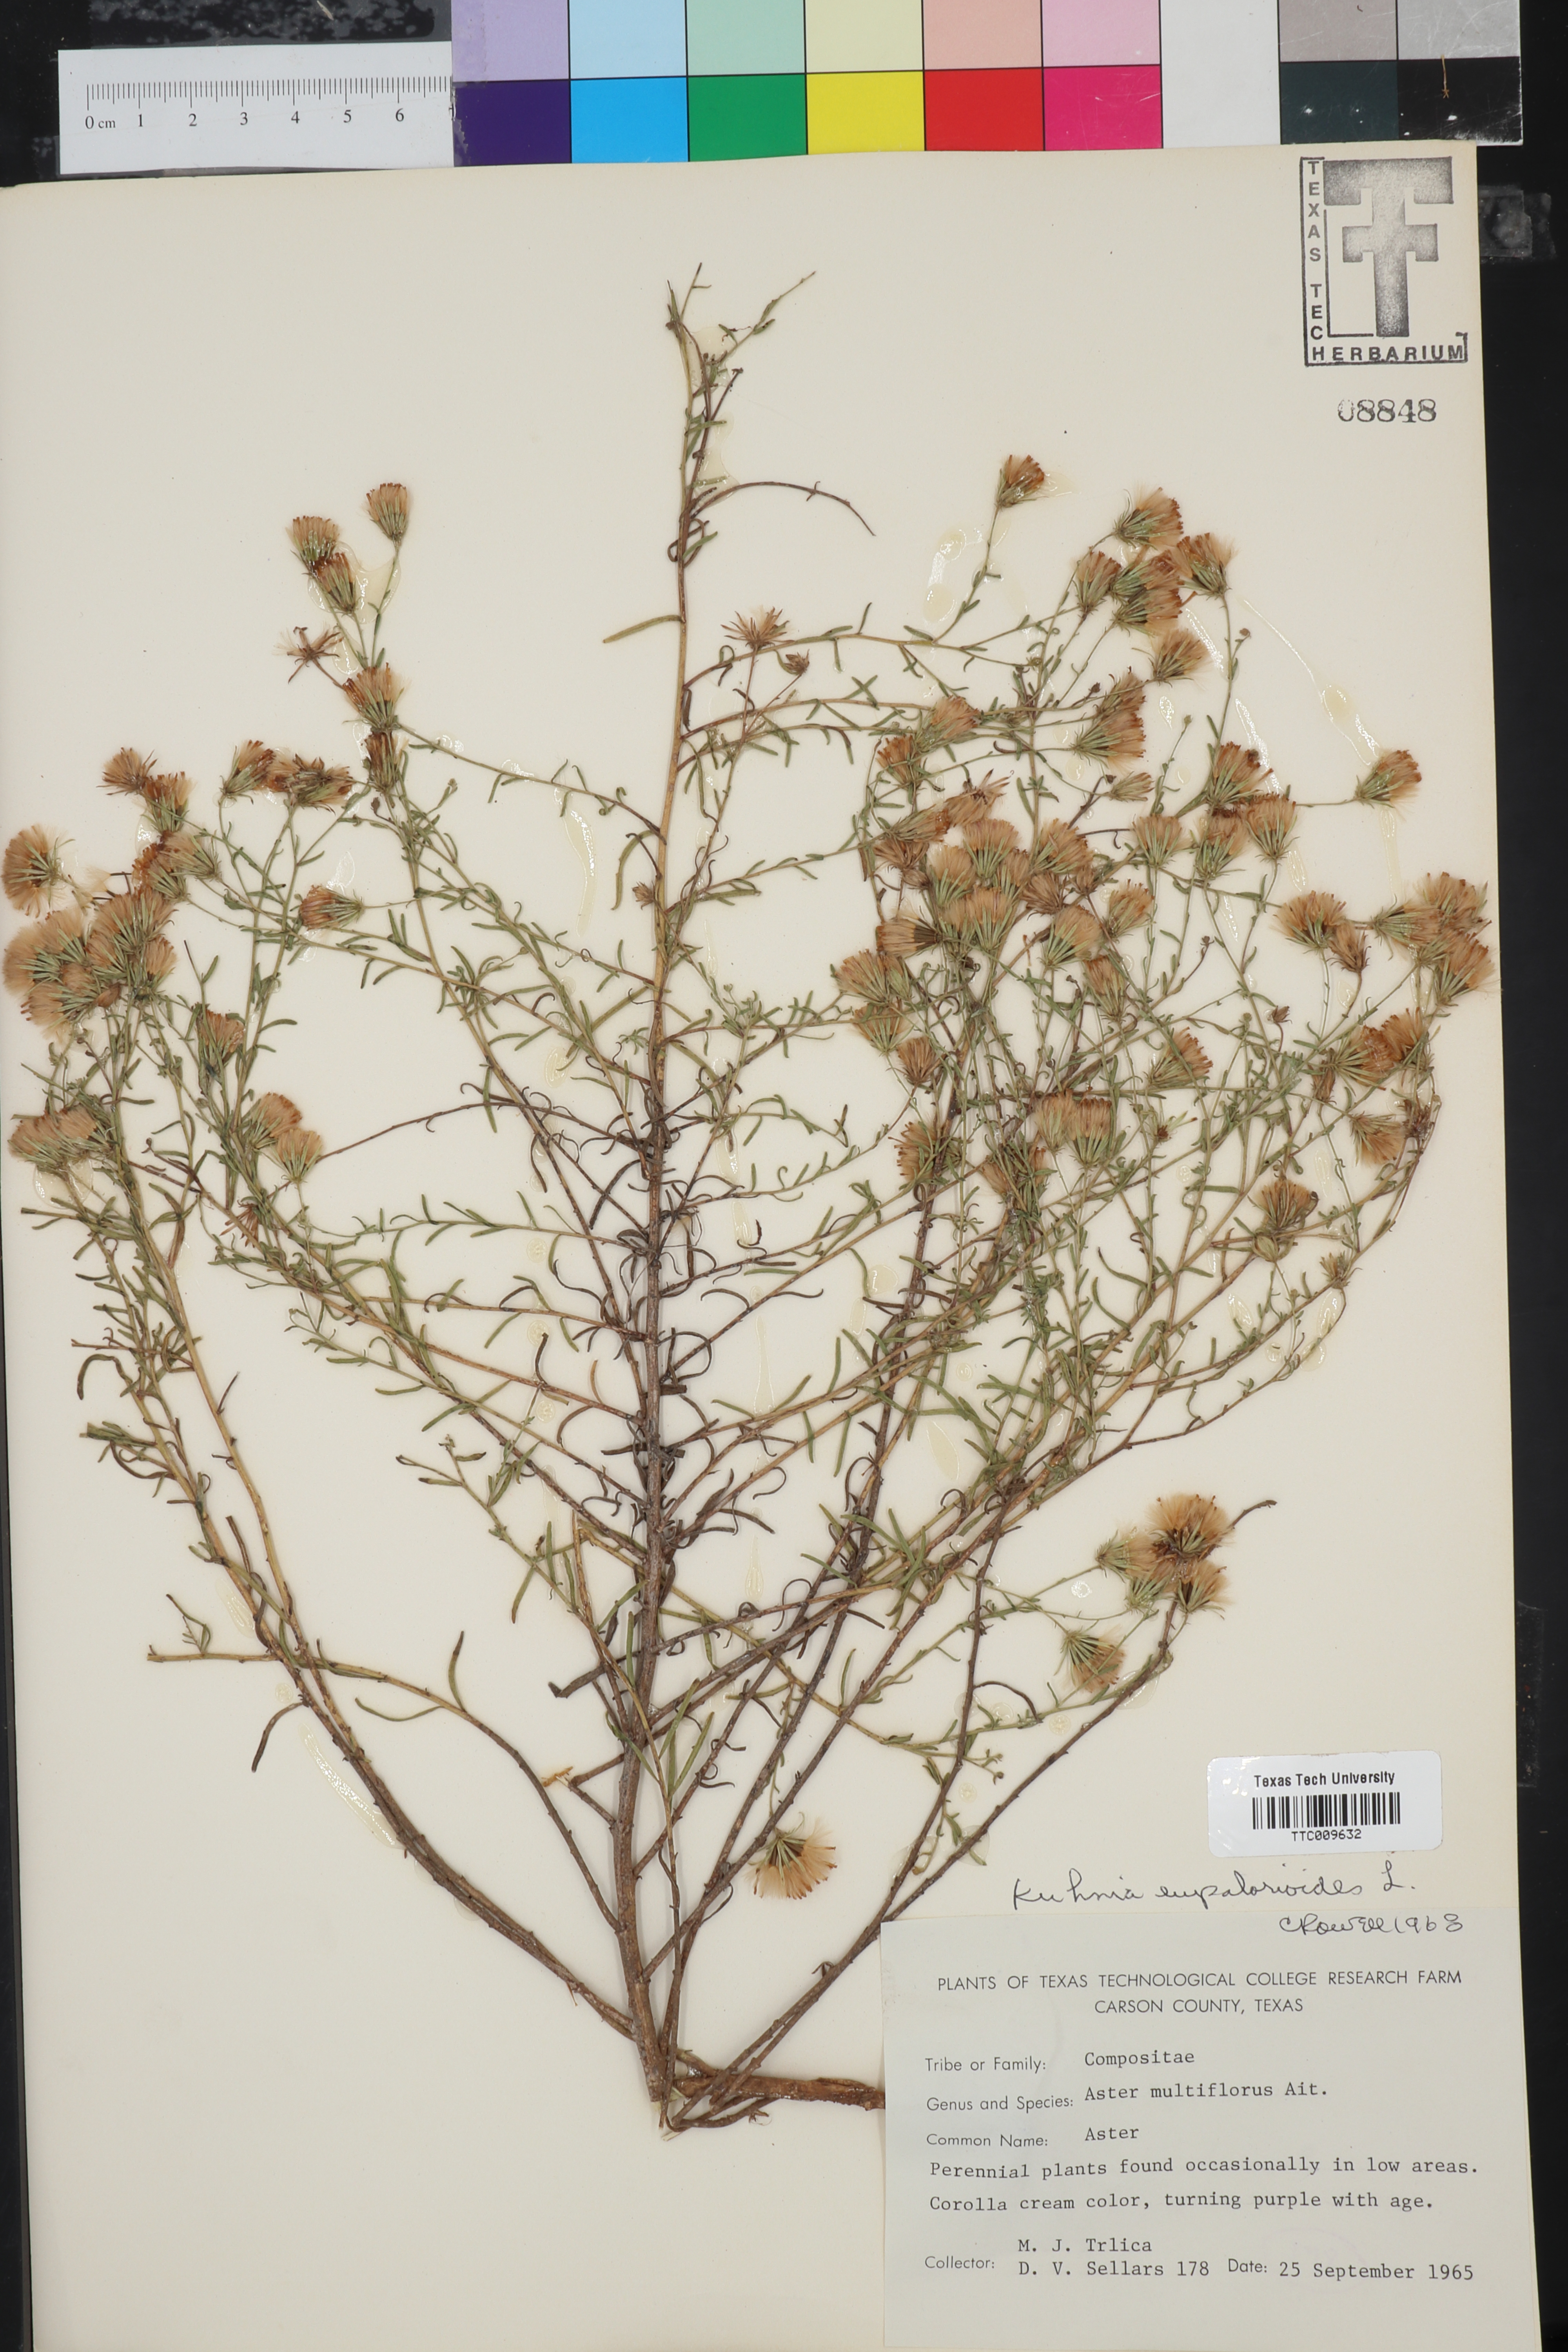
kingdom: Plantae
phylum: Tracheophyta
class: Magnoliopsida
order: Asterales
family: Asteraceae
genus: Brickellia
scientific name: Brickellia eupatorioides
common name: False boneset
